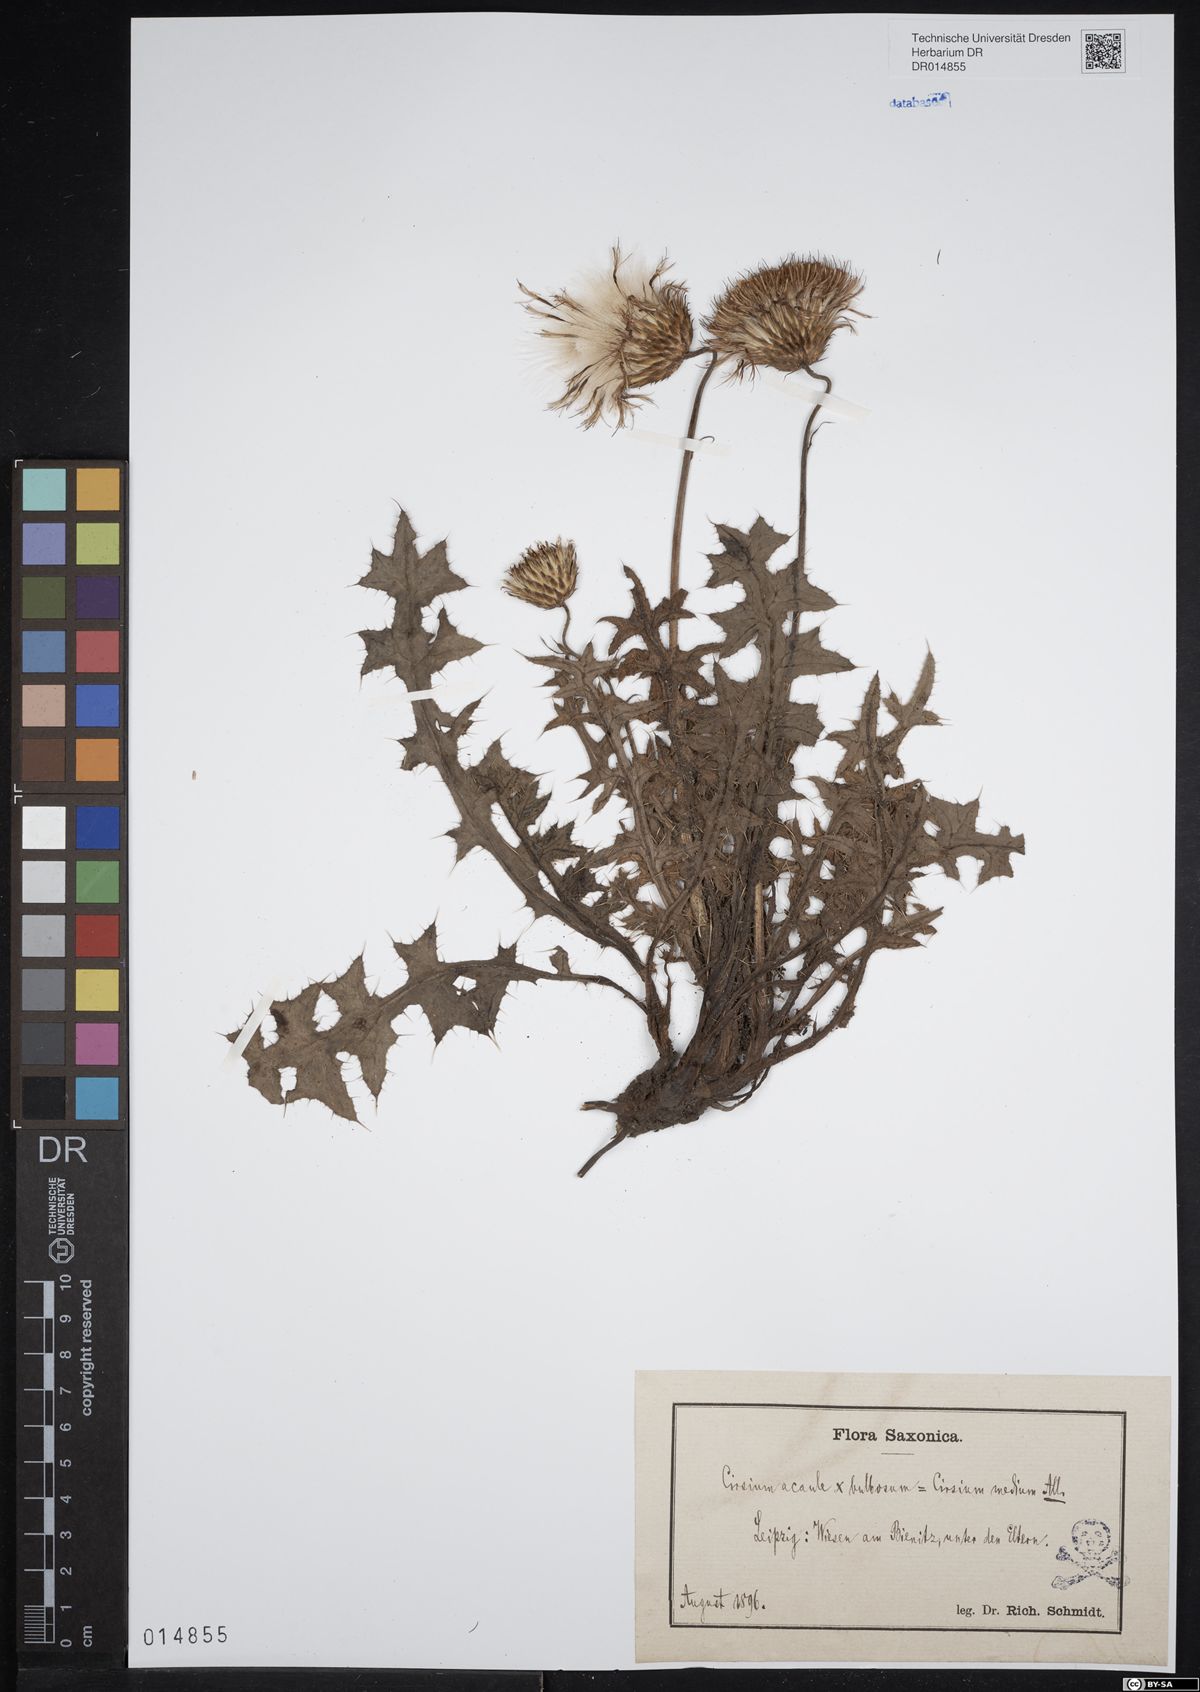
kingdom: Plantae
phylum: Tracheophyta
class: Magnoliopsida
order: Asterales
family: Asteraceae
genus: Cirsium
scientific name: Cirsium medium
